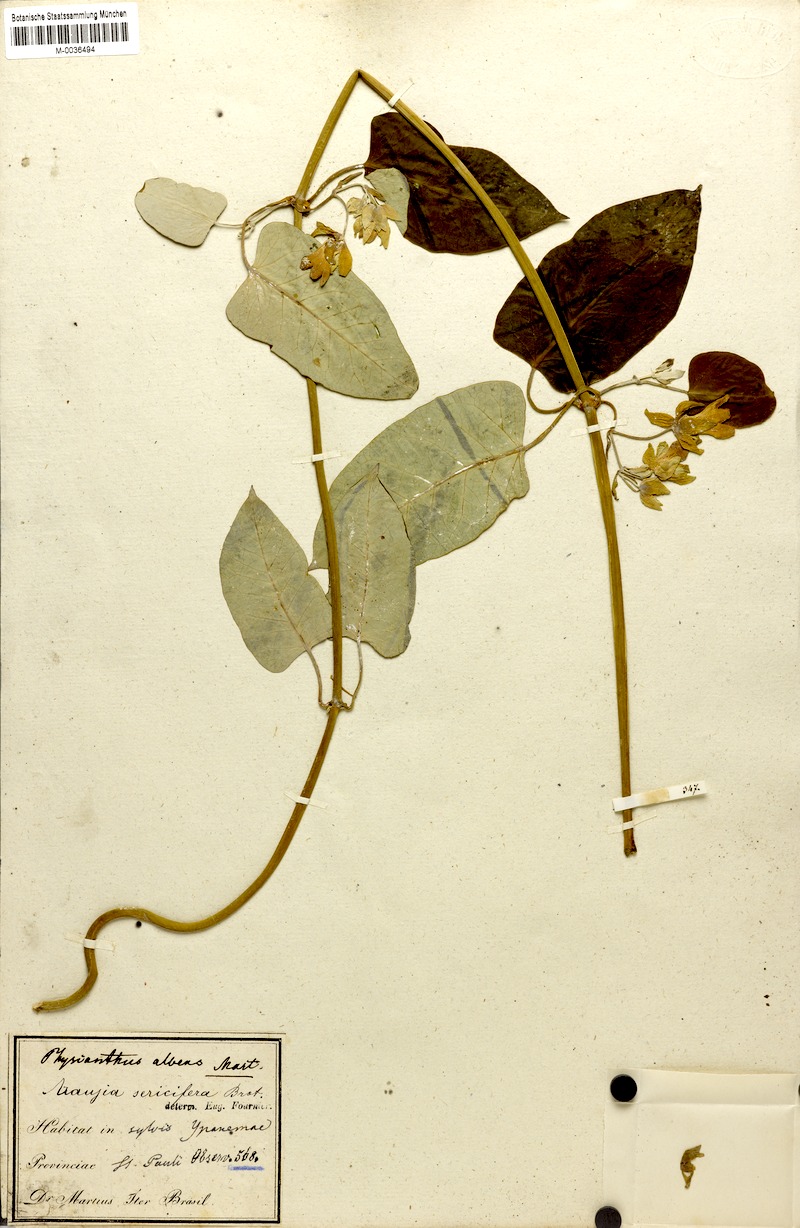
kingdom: Plantae
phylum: Tracheophyta
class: Magnoliopsida
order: Gentianales
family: Apocynaceae
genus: Araujia
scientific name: Araujia sericifera
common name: White bladderflower
